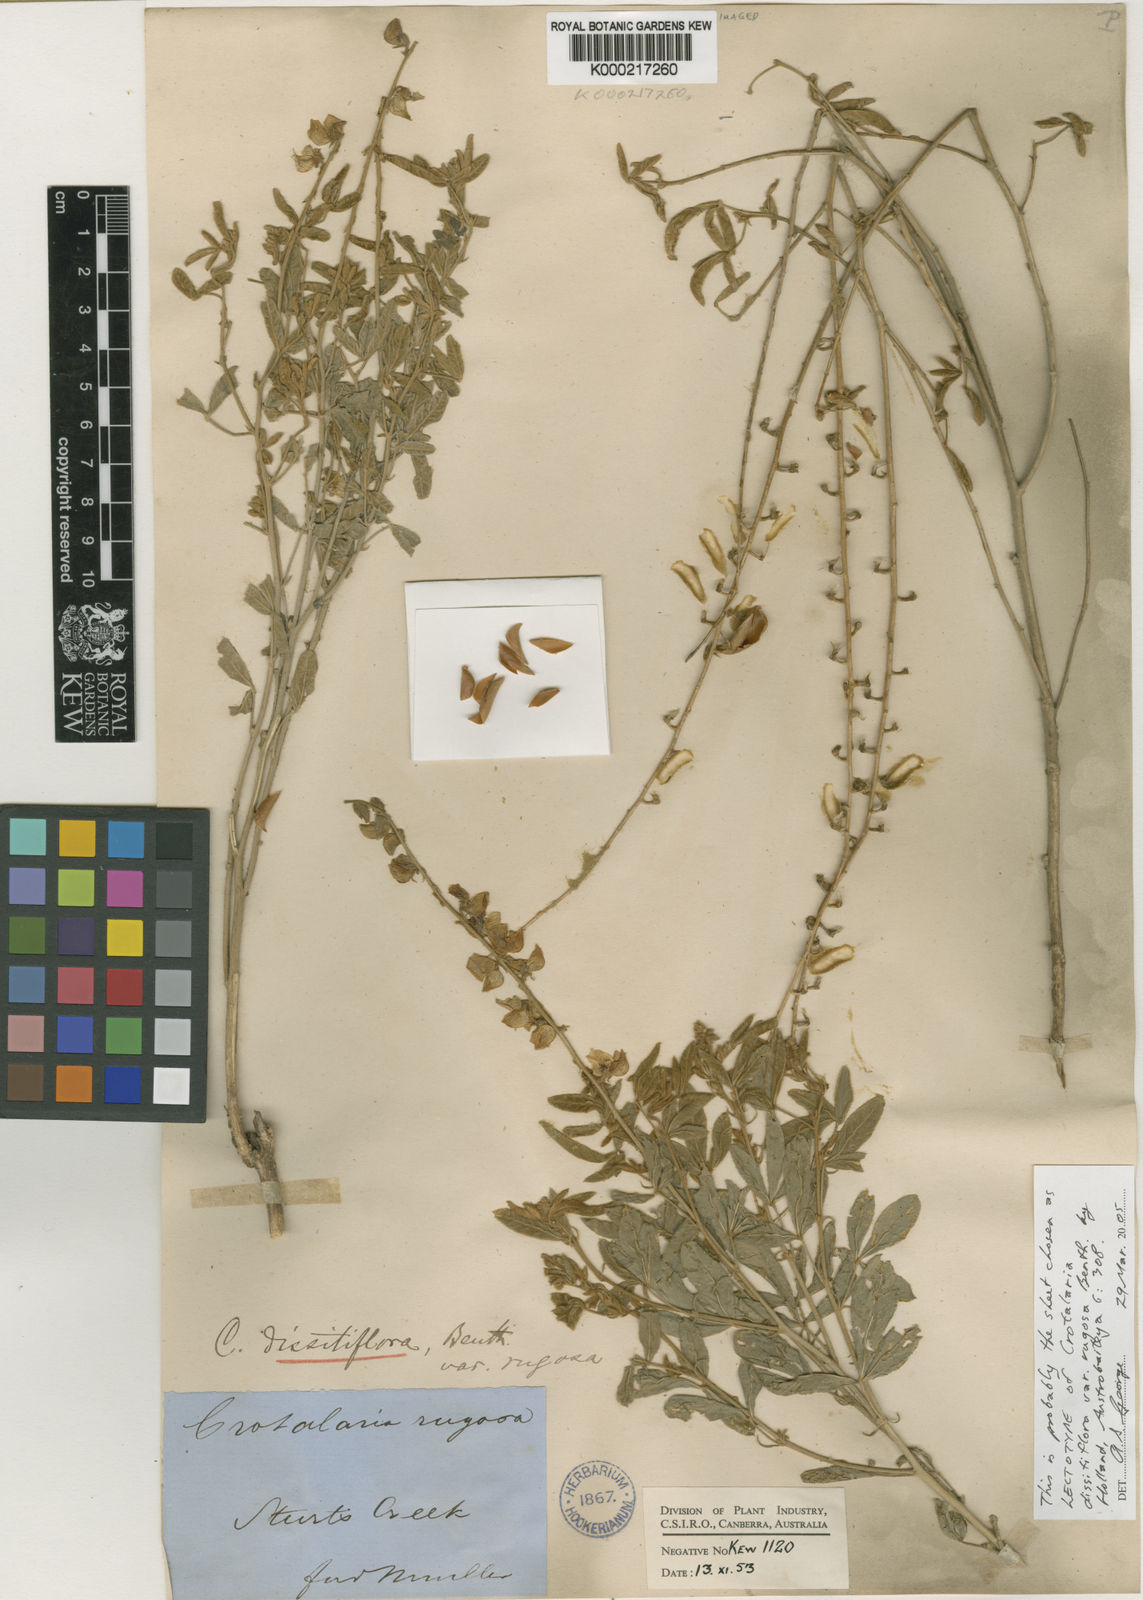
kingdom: Plantae
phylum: Tracheophyta
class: Magnoliopsida
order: Fabales
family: Fabaceae
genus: Crotalaria
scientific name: Crotalaria dissitiflora
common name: Grey rattlepod
